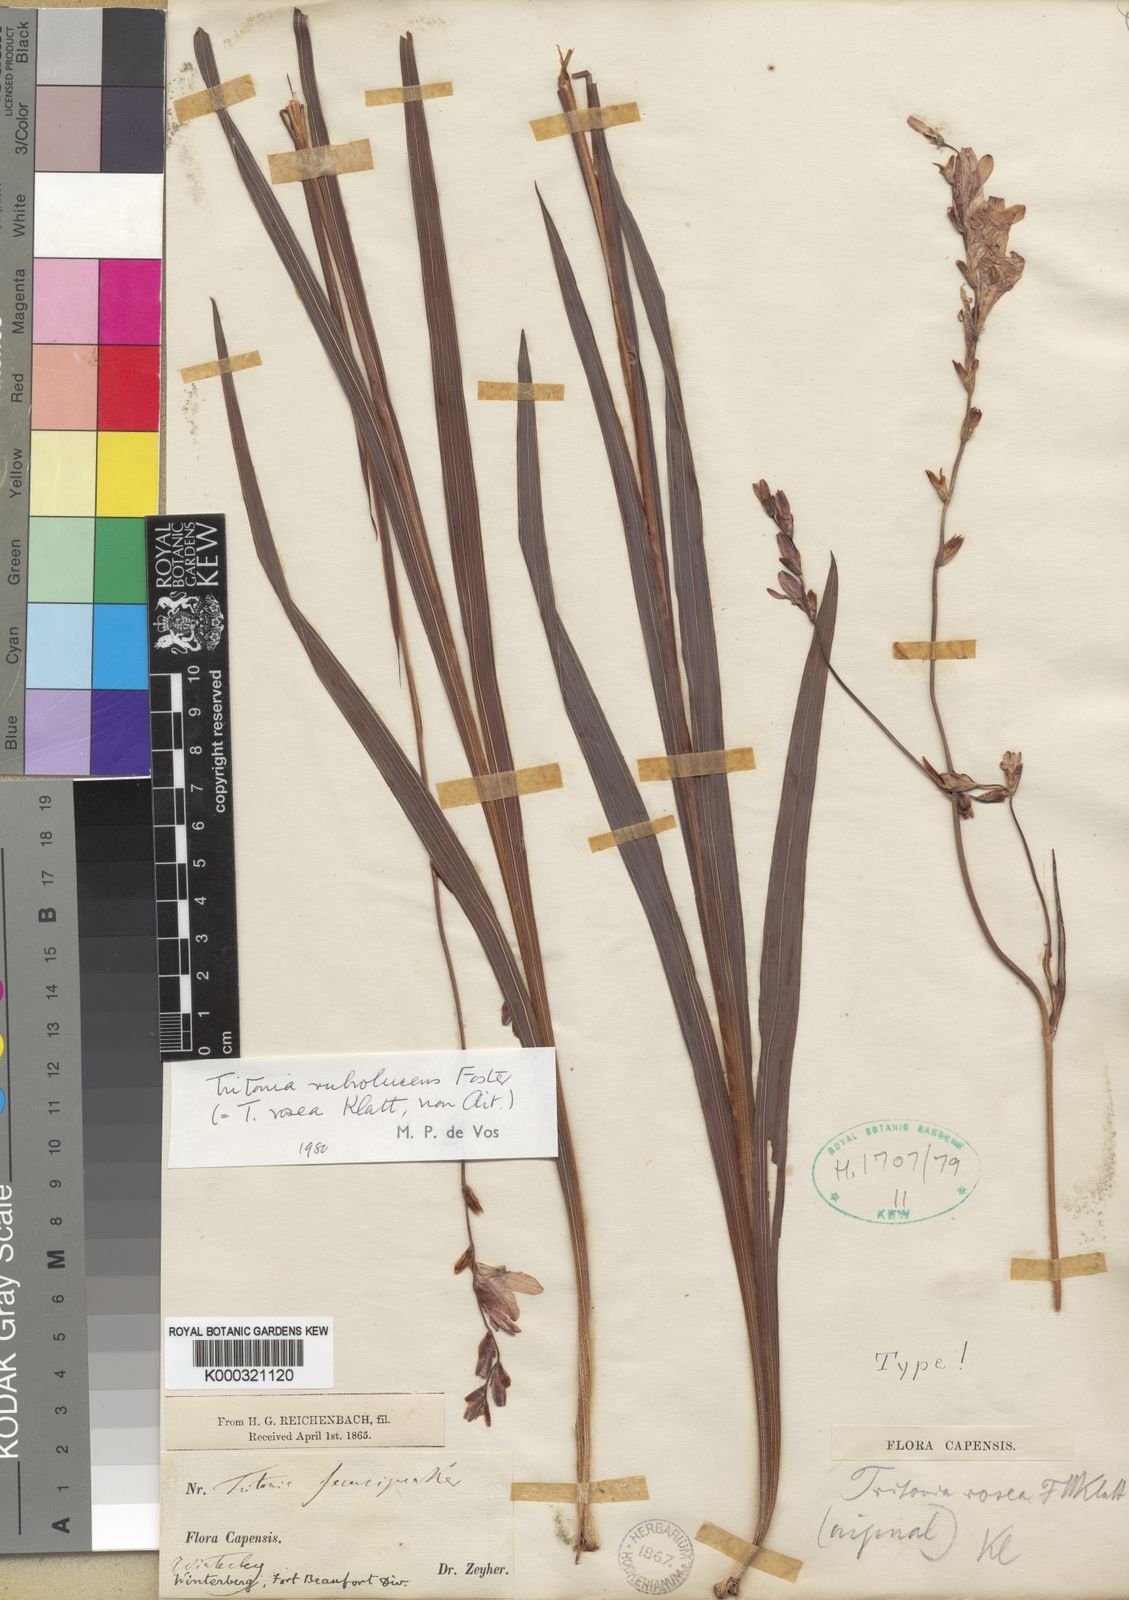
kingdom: Plantae
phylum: Tracheophyta
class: Liliopsida
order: Asparagales
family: Iridaceae
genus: Tritonia
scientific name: Tritonia disticha
